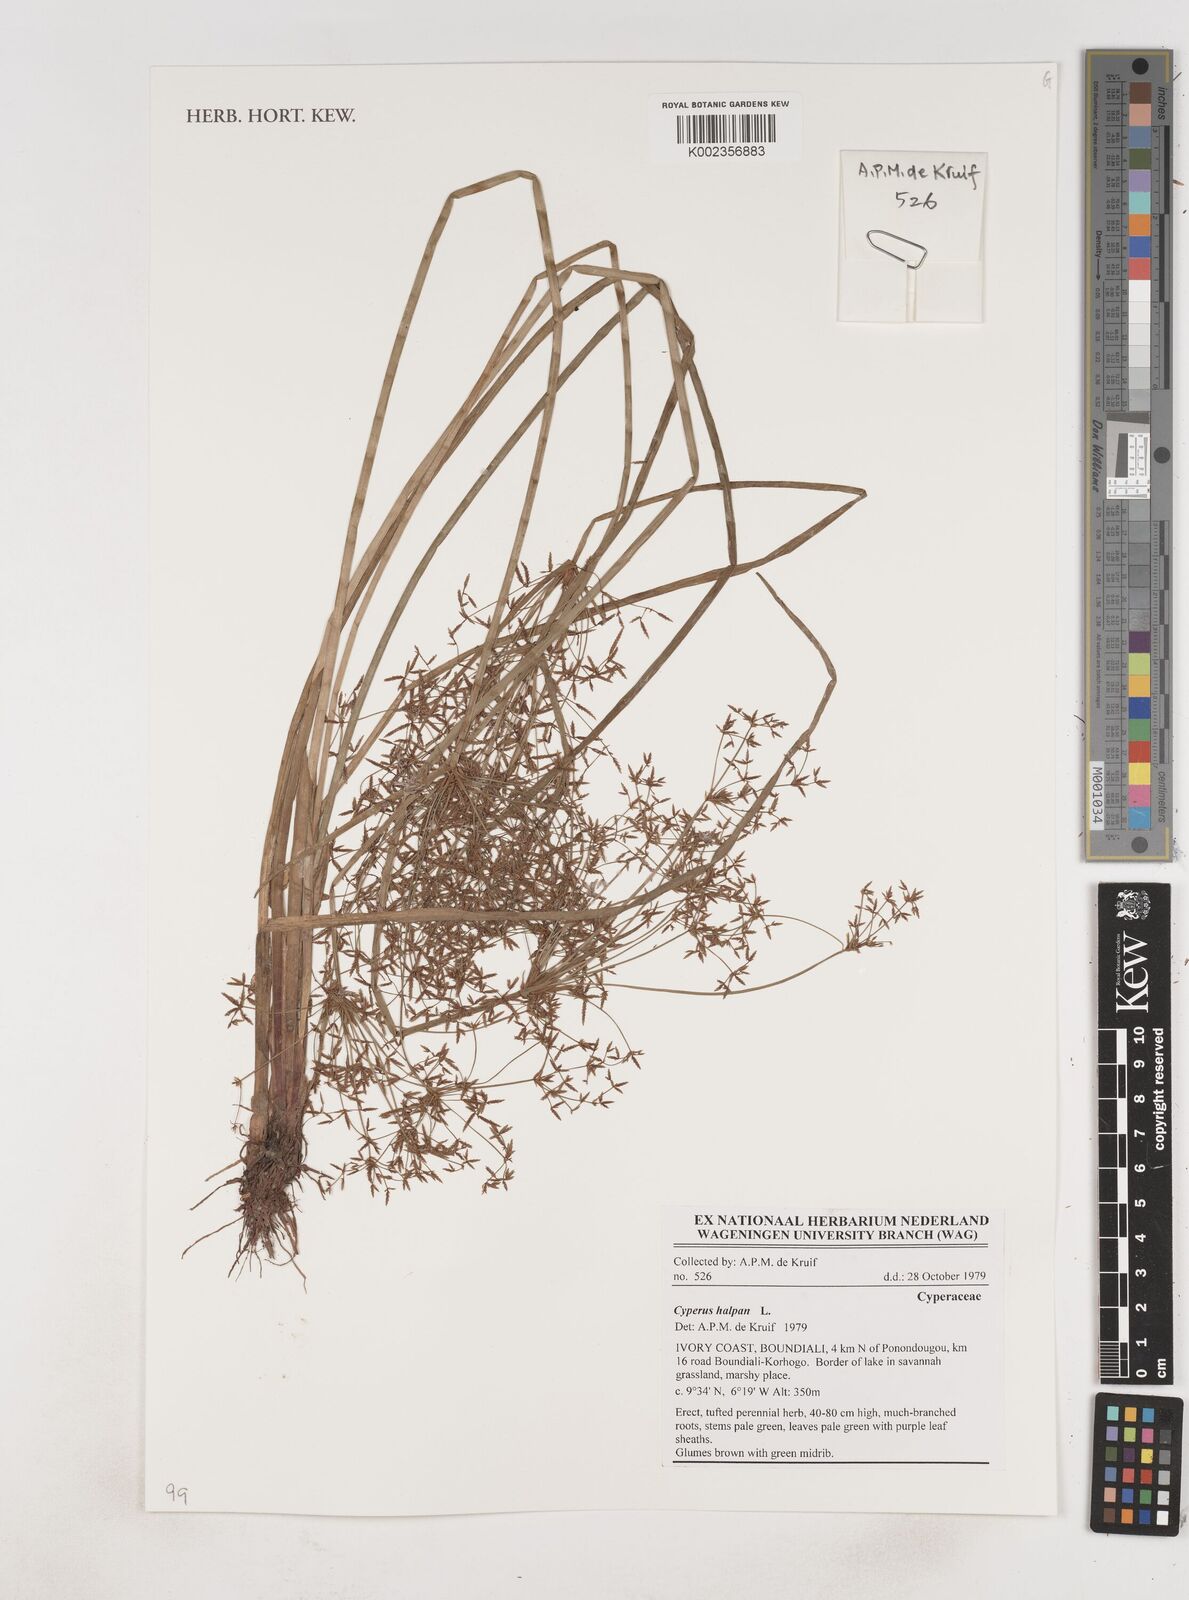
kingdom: Plantae
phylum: Tracheophyta
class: Liliopsida
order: Poales
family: Cyperaceae
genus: Cyperus
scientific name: Cyperus haspan
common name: Haspan flatsedge
